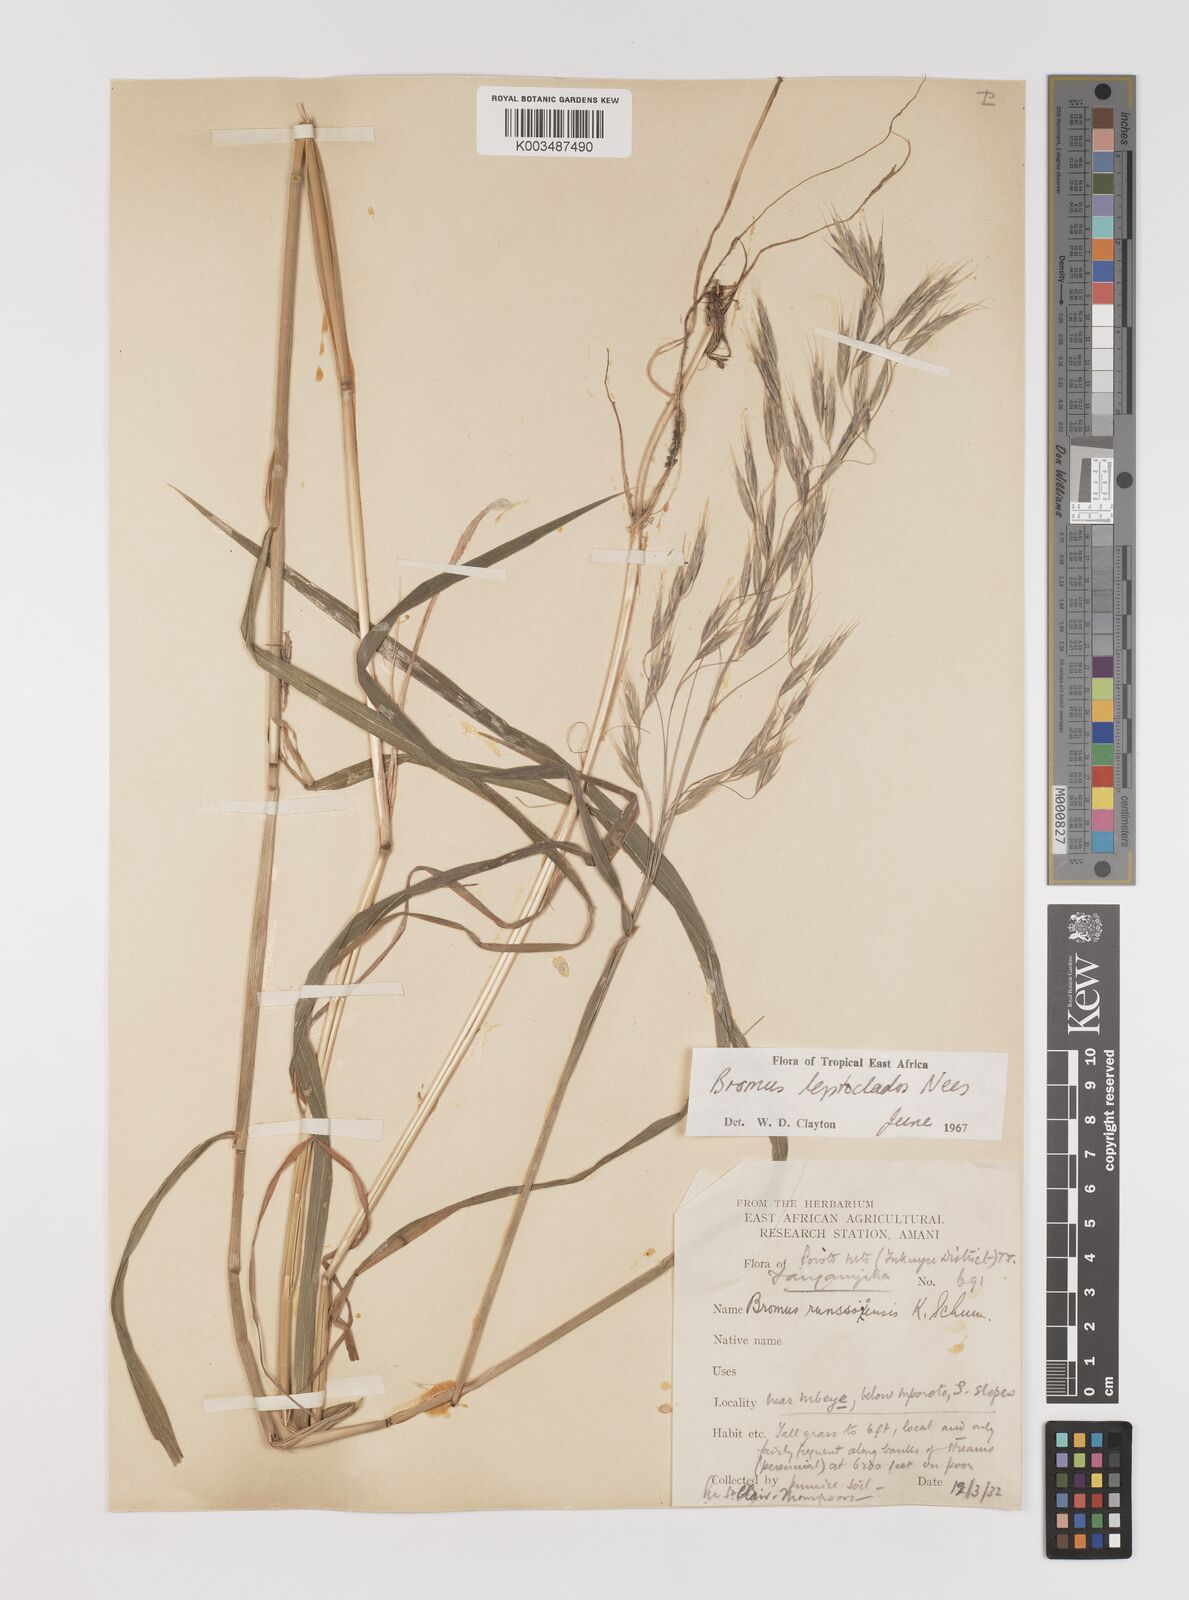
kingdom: Plantae
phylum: Tracheophyta
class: Liliopsida
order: Poales
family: Poaceae
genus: Bromus
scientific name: Bromus leptoclados
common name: Mountain bromegrass
